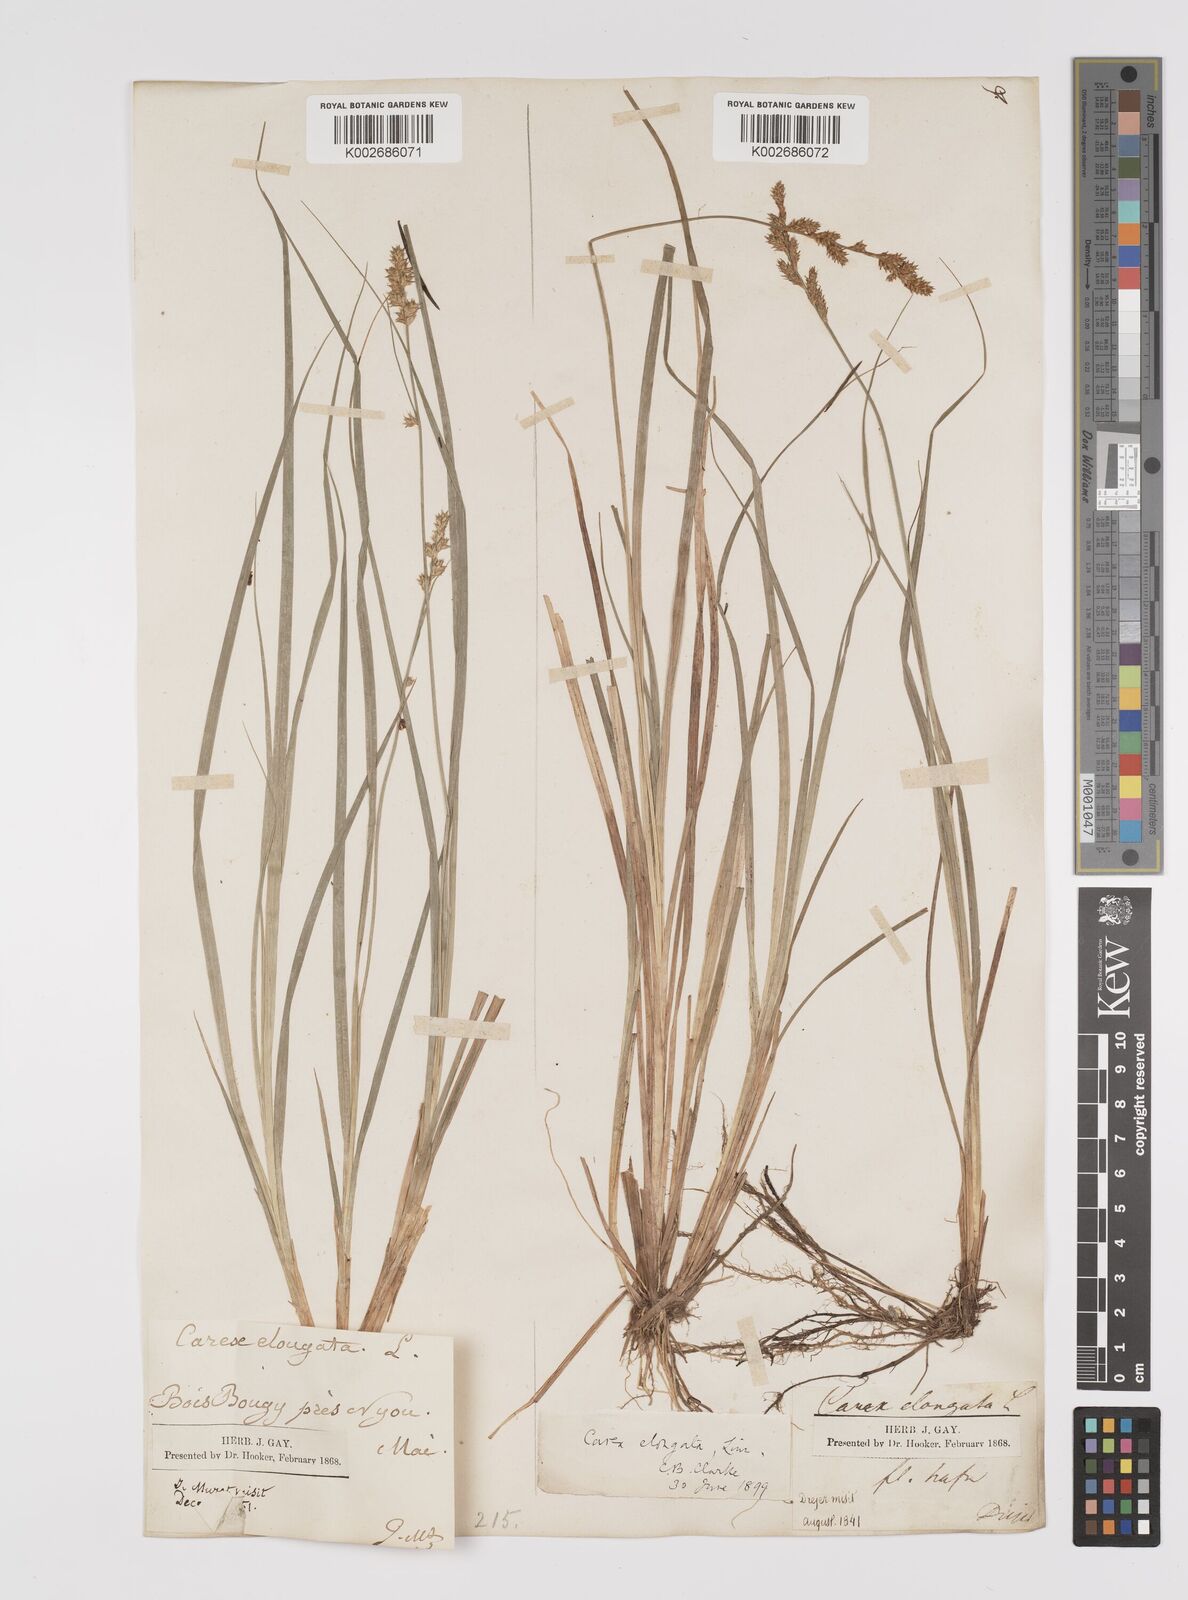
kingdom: Plantae
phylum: Tracheophyta
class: Liliopsida
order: Poales
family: Cyperaceae
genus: Carex
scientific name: Carex elongata
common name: Elongated sedge
